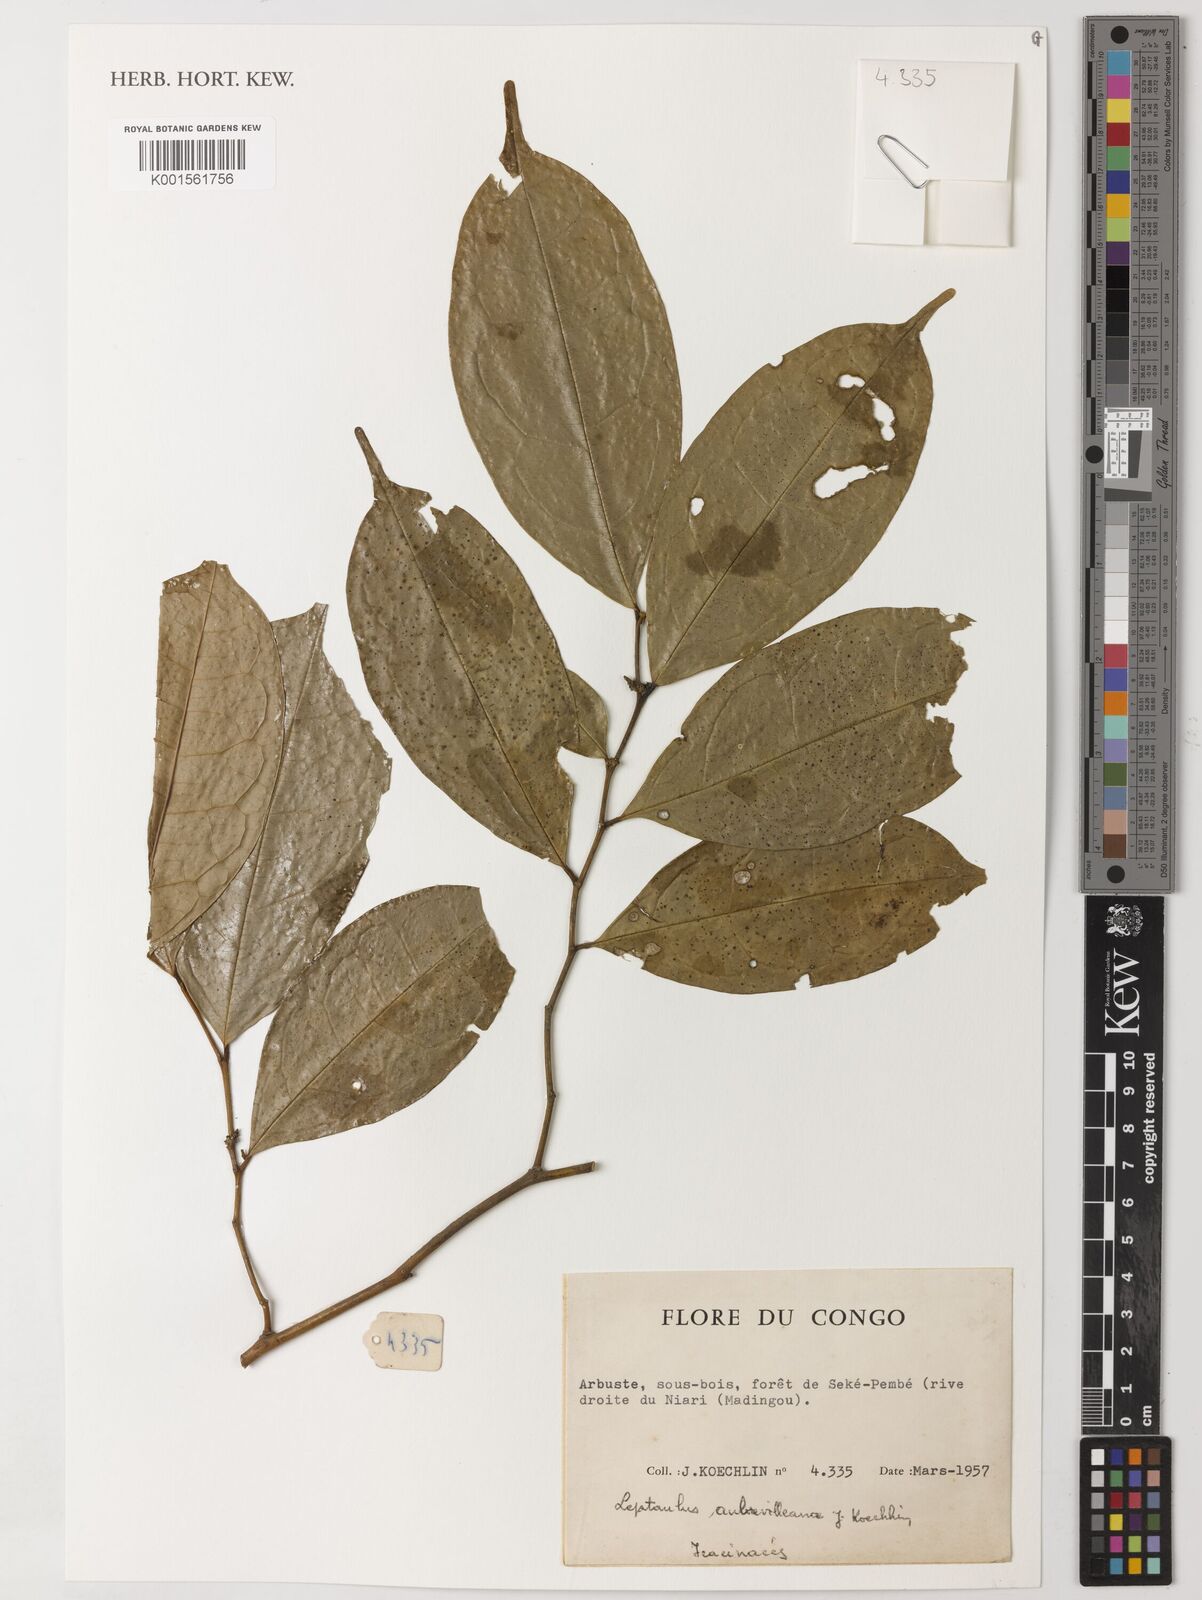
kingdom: Plantae
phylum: Tracheophyta
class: Magnoliopsida
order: Cardiopteridales
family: Cardiopteridaceae
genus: Leptaulus
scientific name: Leptaulus
